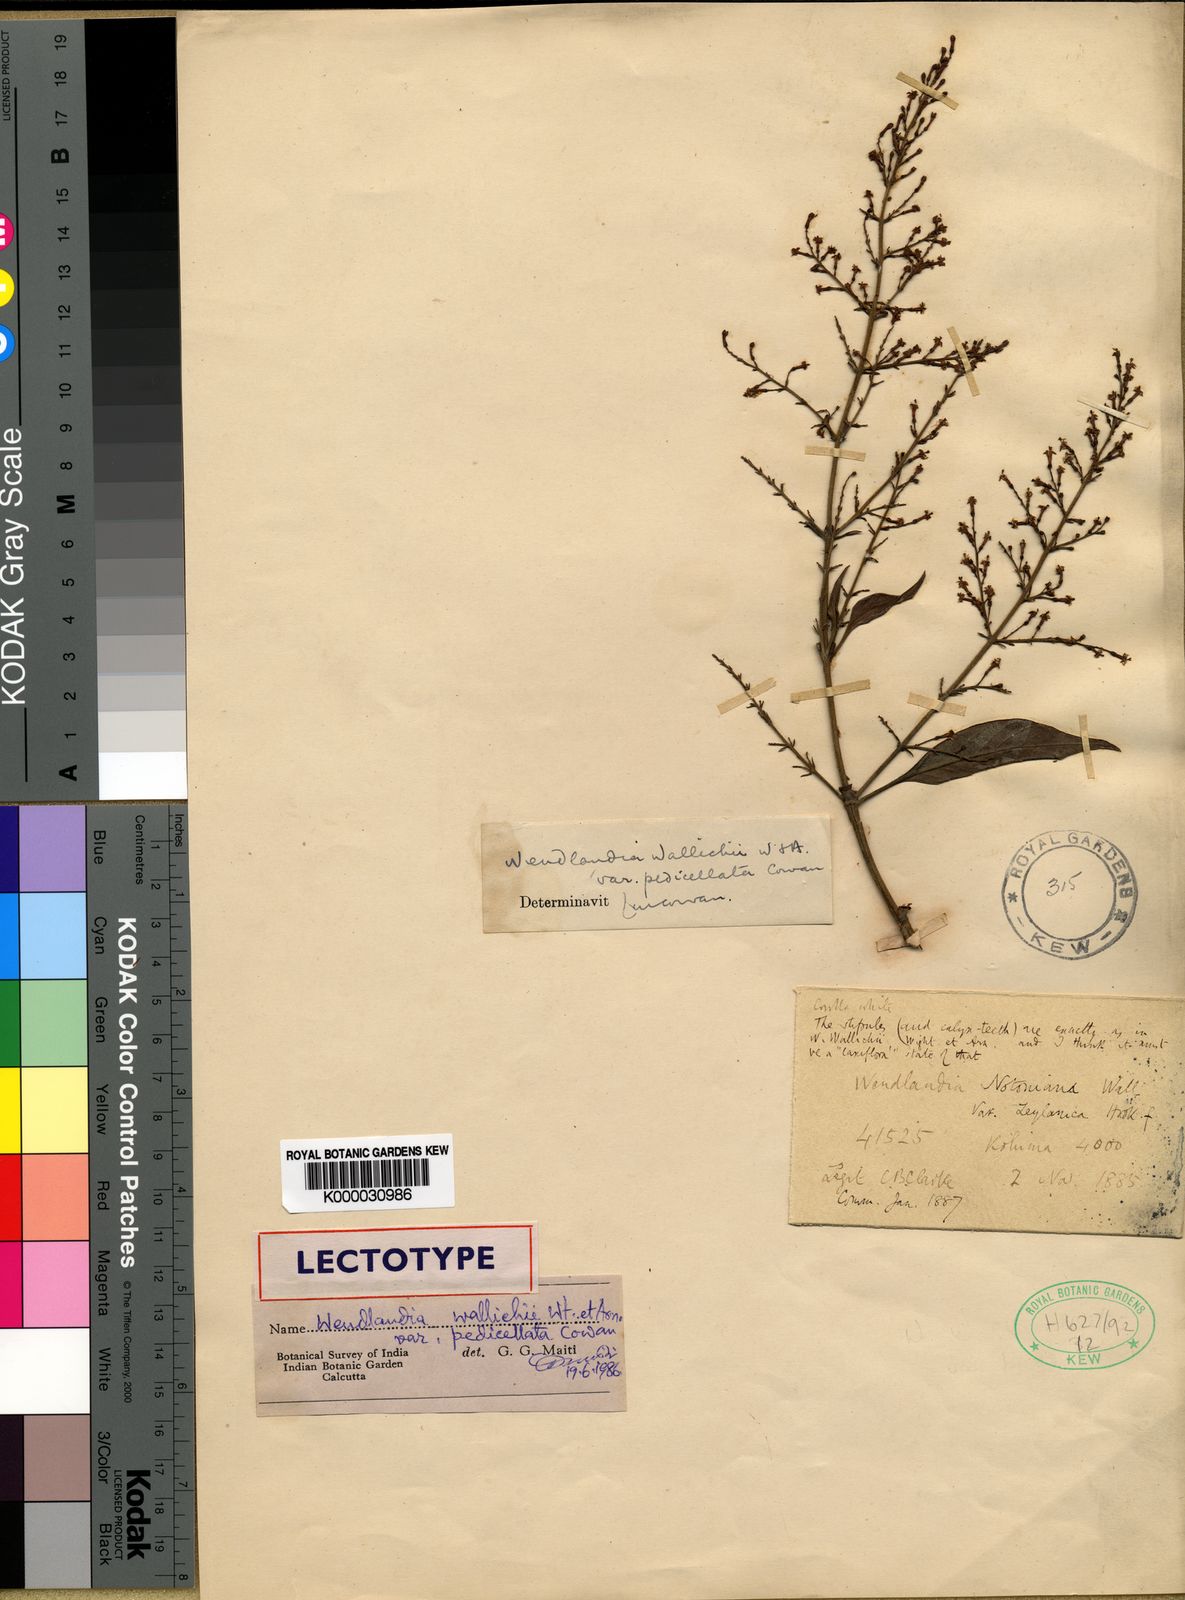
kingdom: Plantae
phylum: Tracheophyta
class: Magnoliopsida
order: Gentianales
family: Rubiaceae
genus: Wendlandia
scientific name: Wendlandia wallichii
